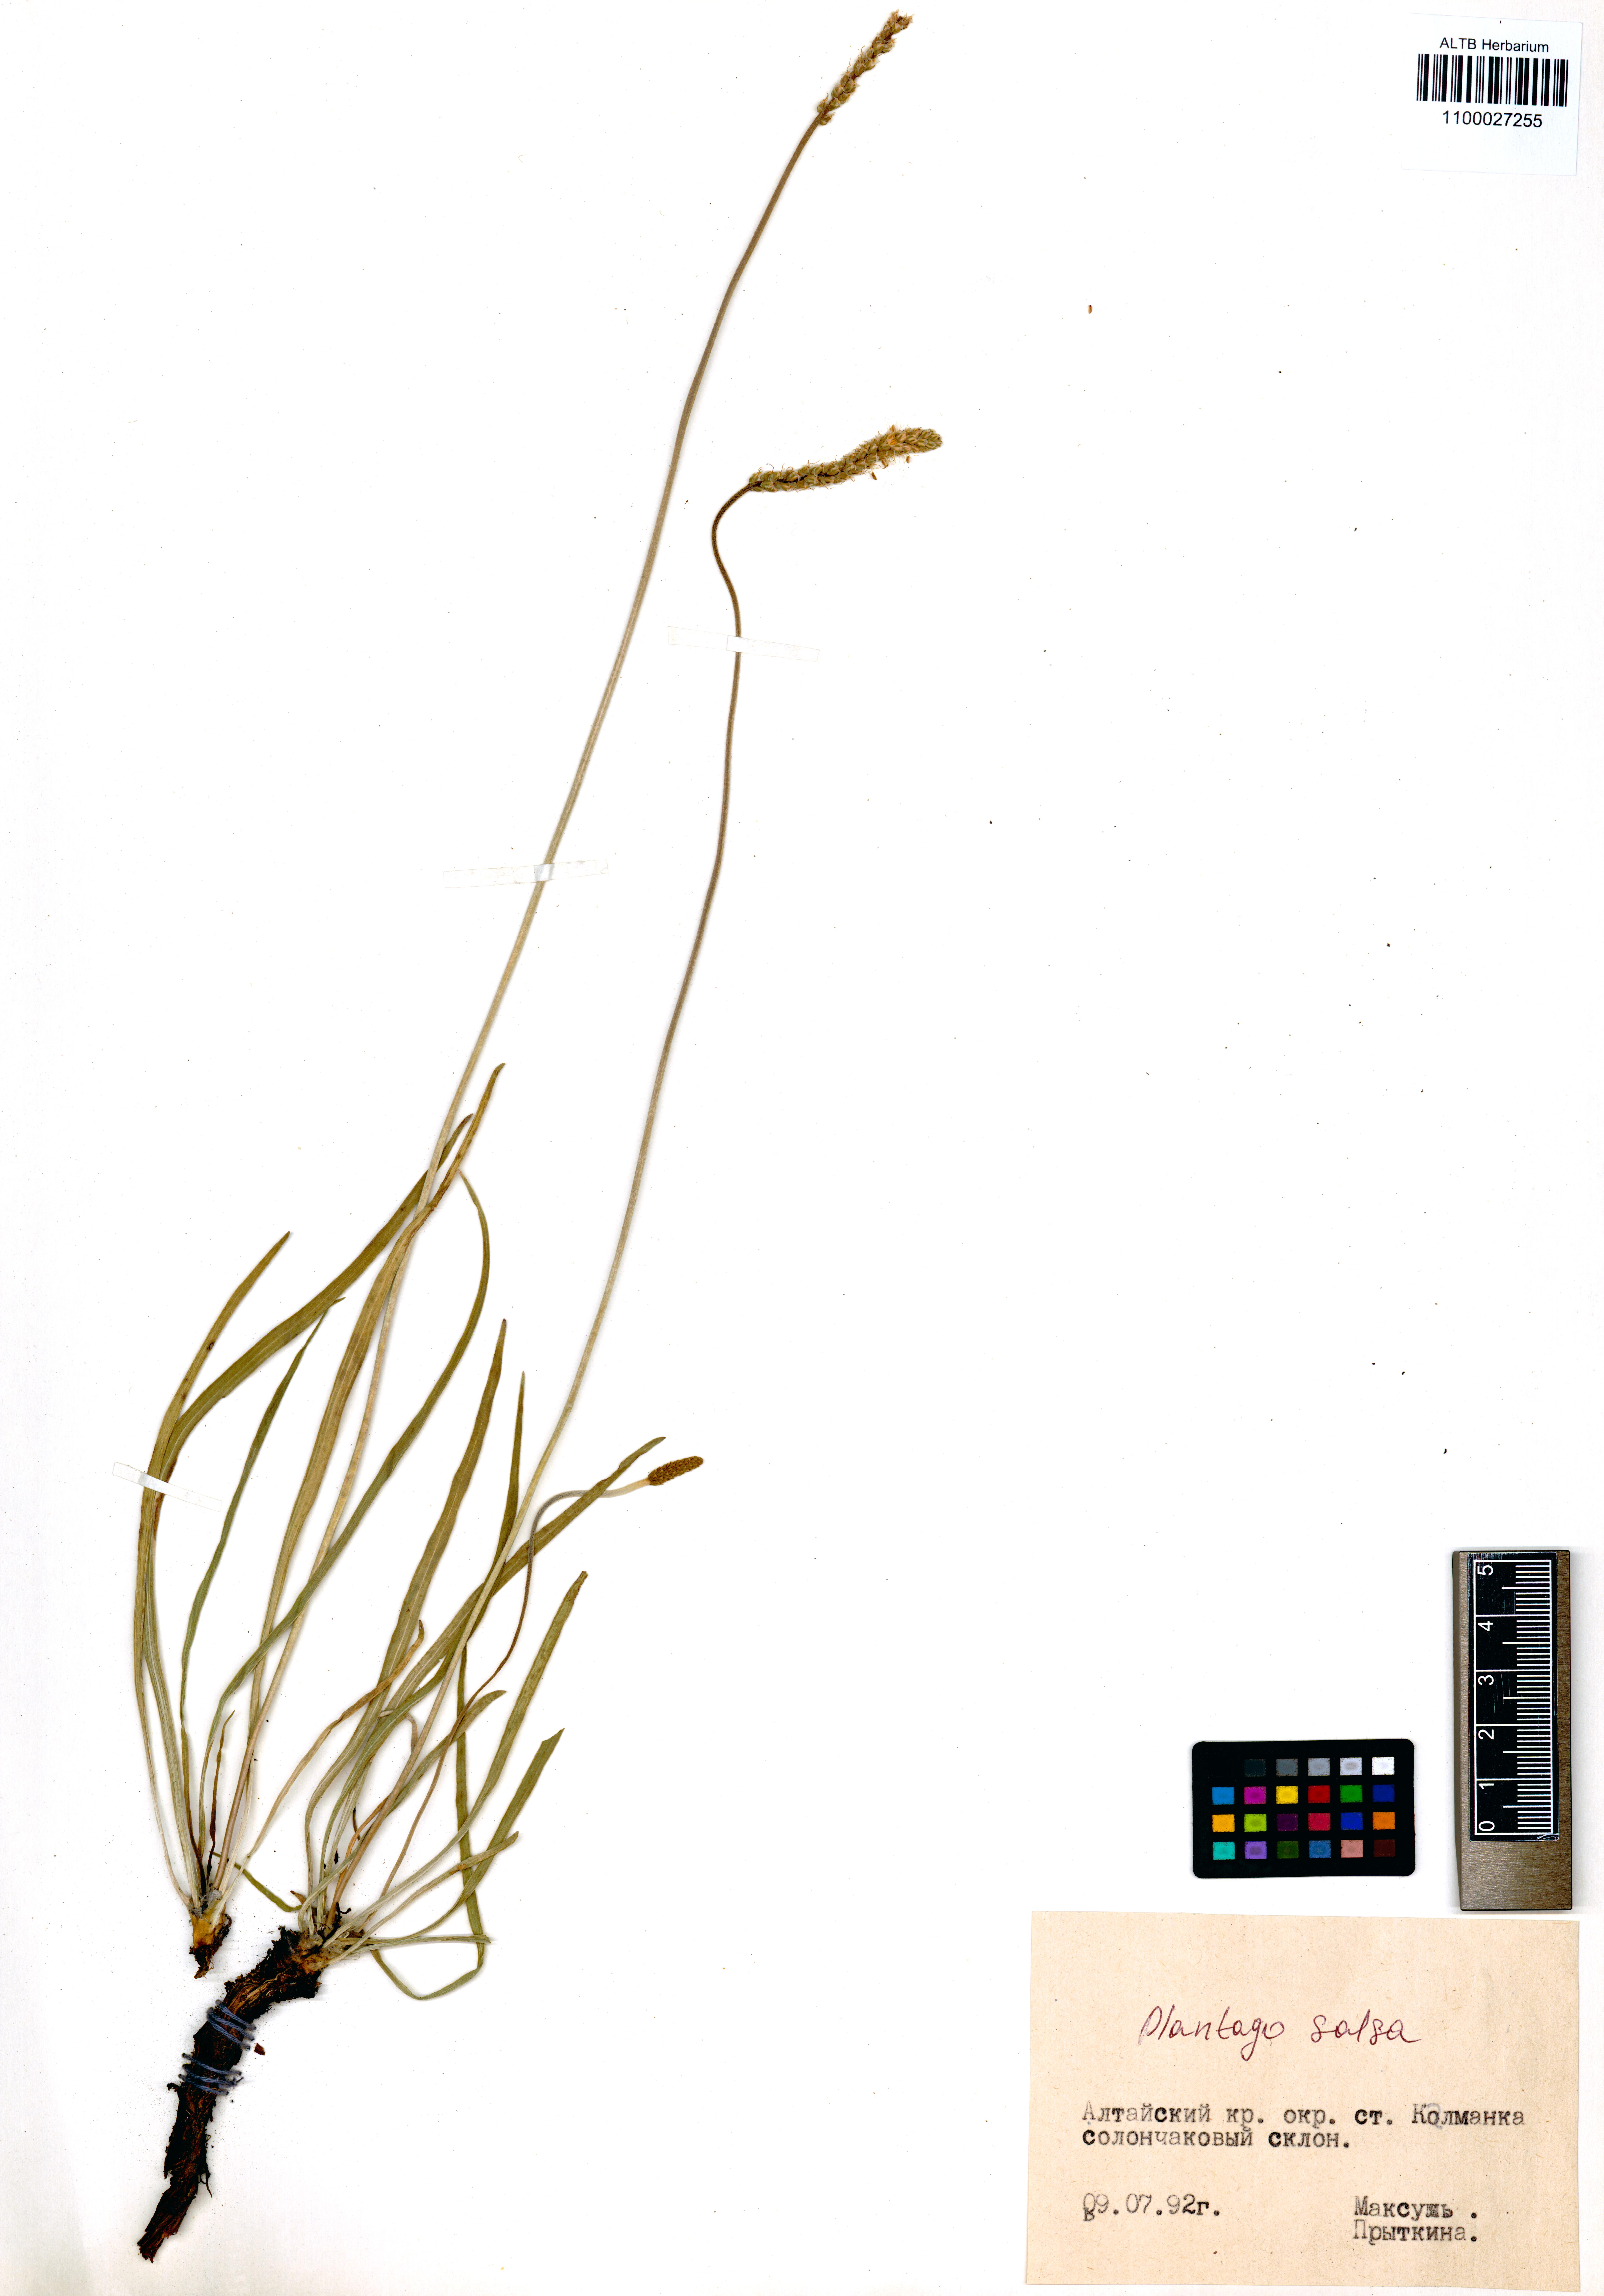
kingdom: Plantae
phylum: Tracheophyta
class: Magnoliopsida
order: Lamiales
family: Plantaginaceae
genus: Plantago
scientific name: Plantago salsa
